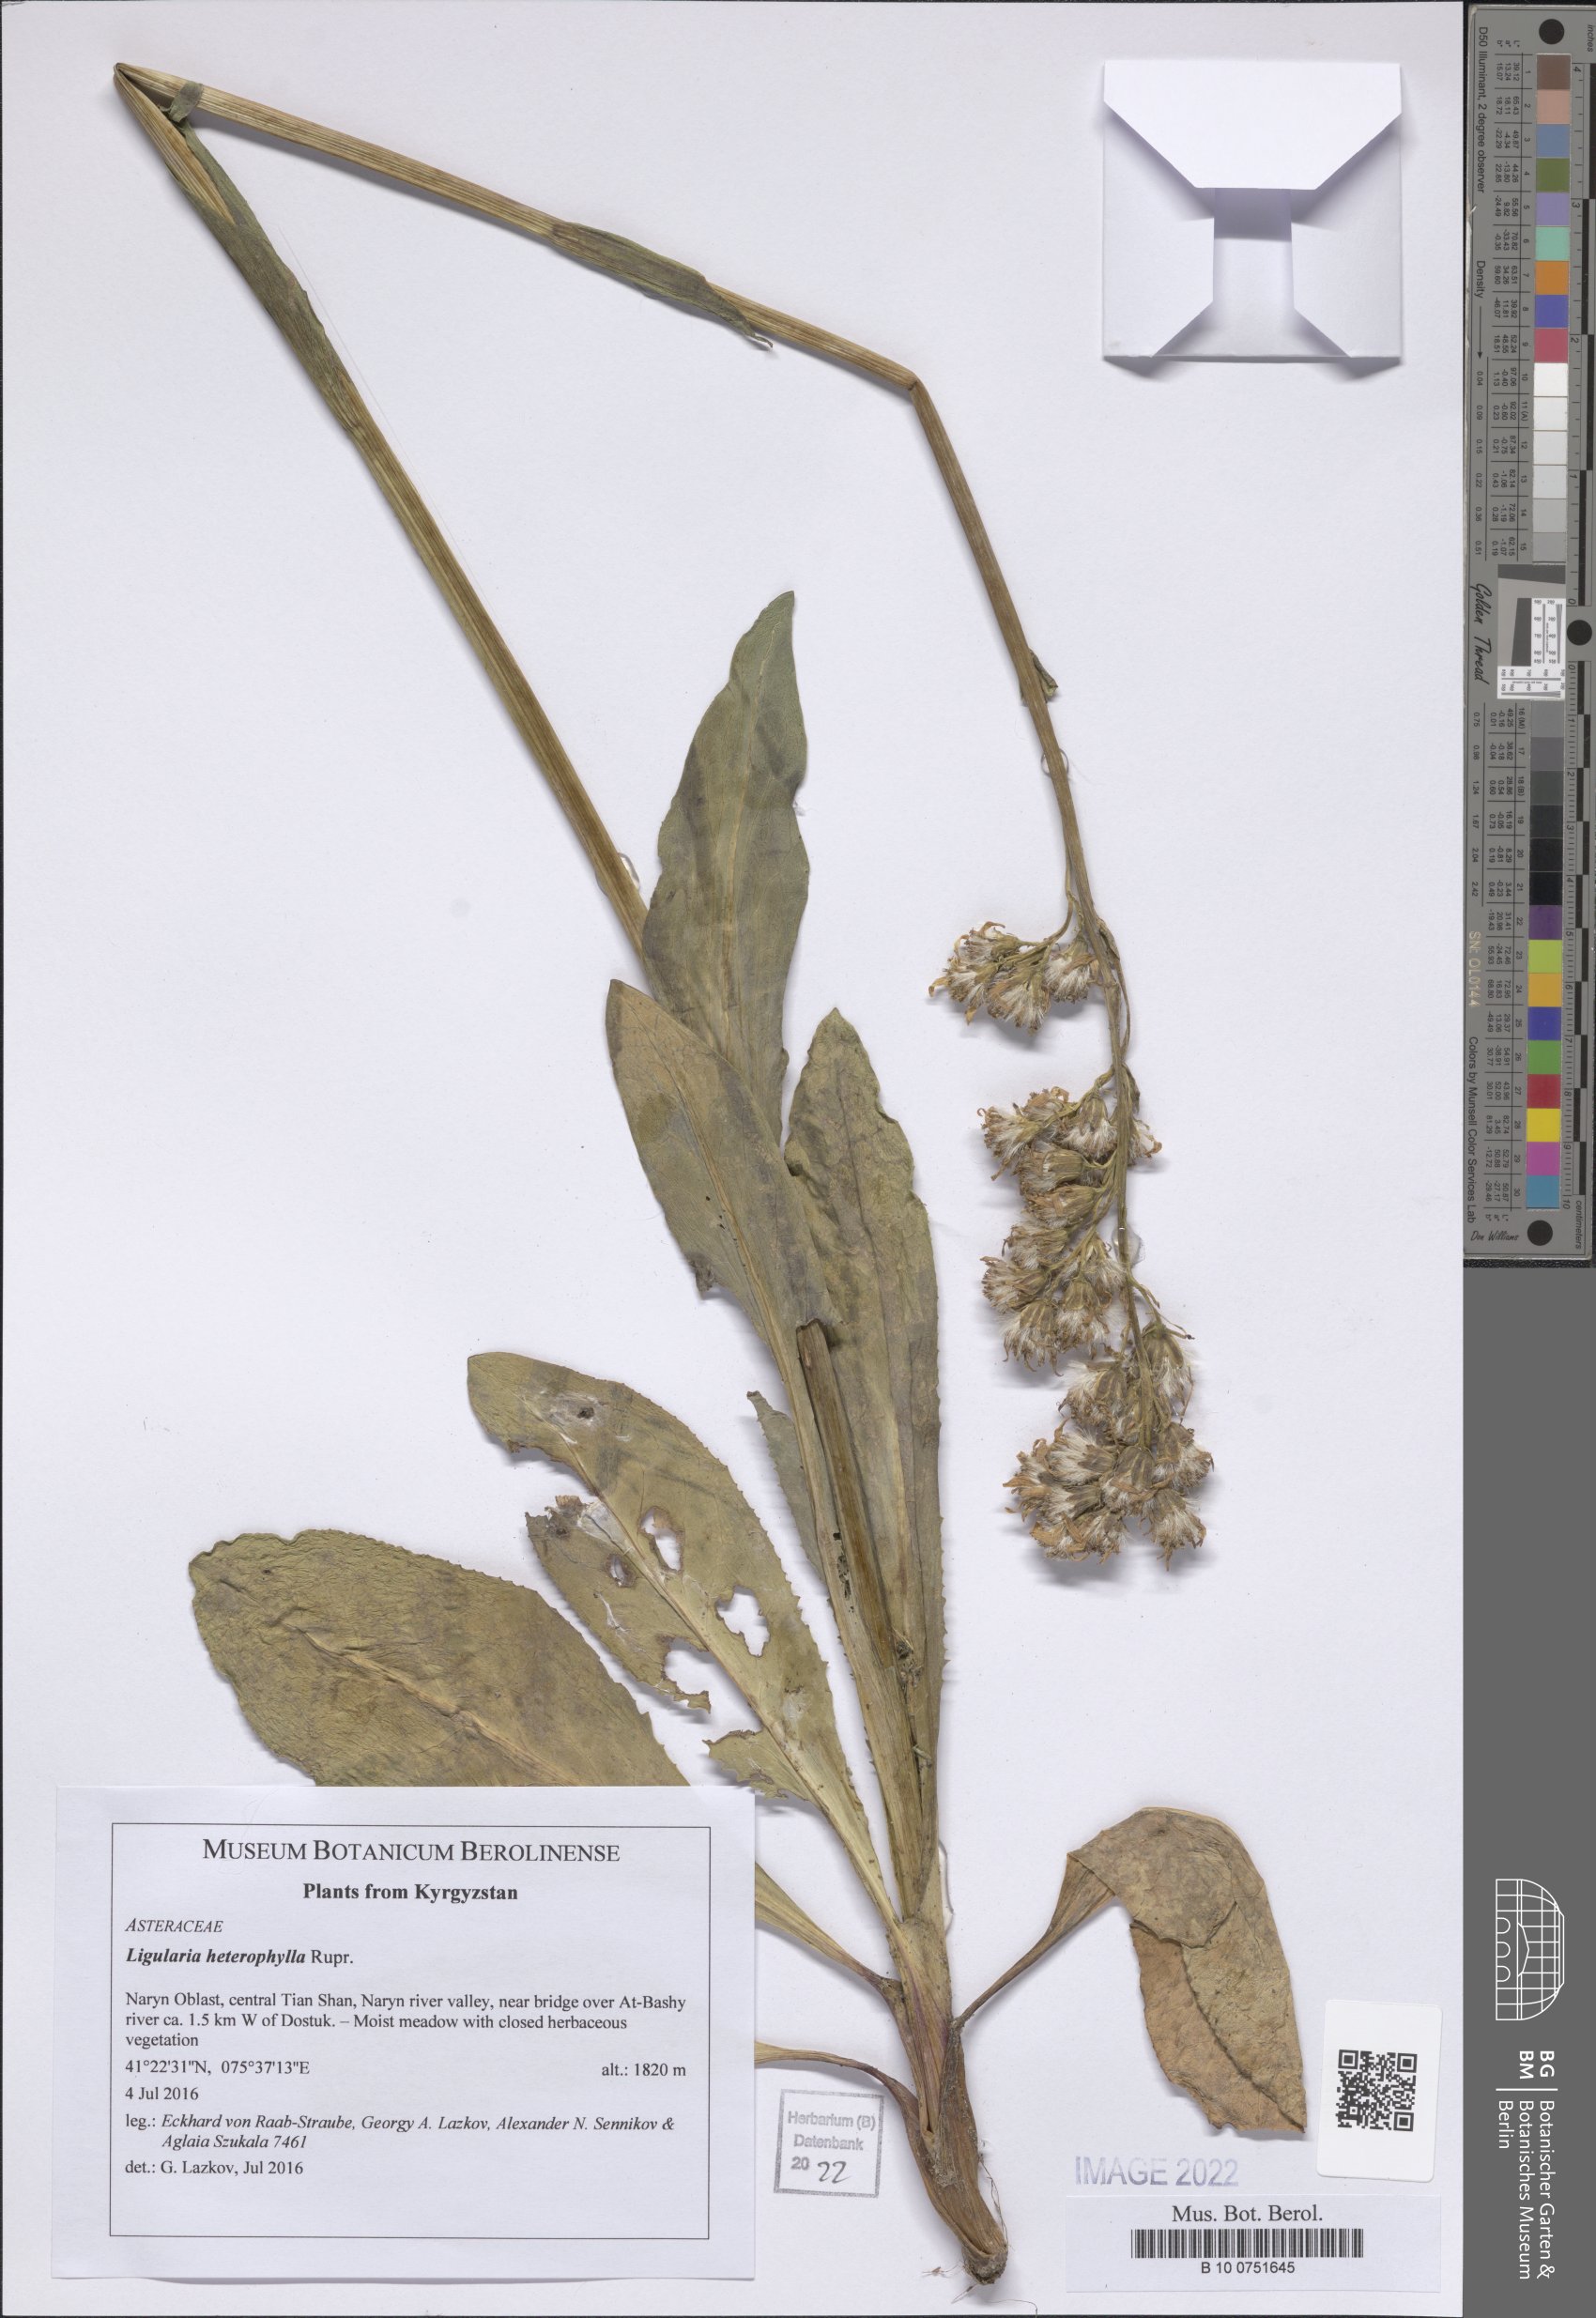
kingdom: Plantae
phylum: Tracheophyta
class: Magnoliopsida
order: Asterales
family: Asteraceae
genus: Ligularia
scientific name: Ligularia heterophylla
